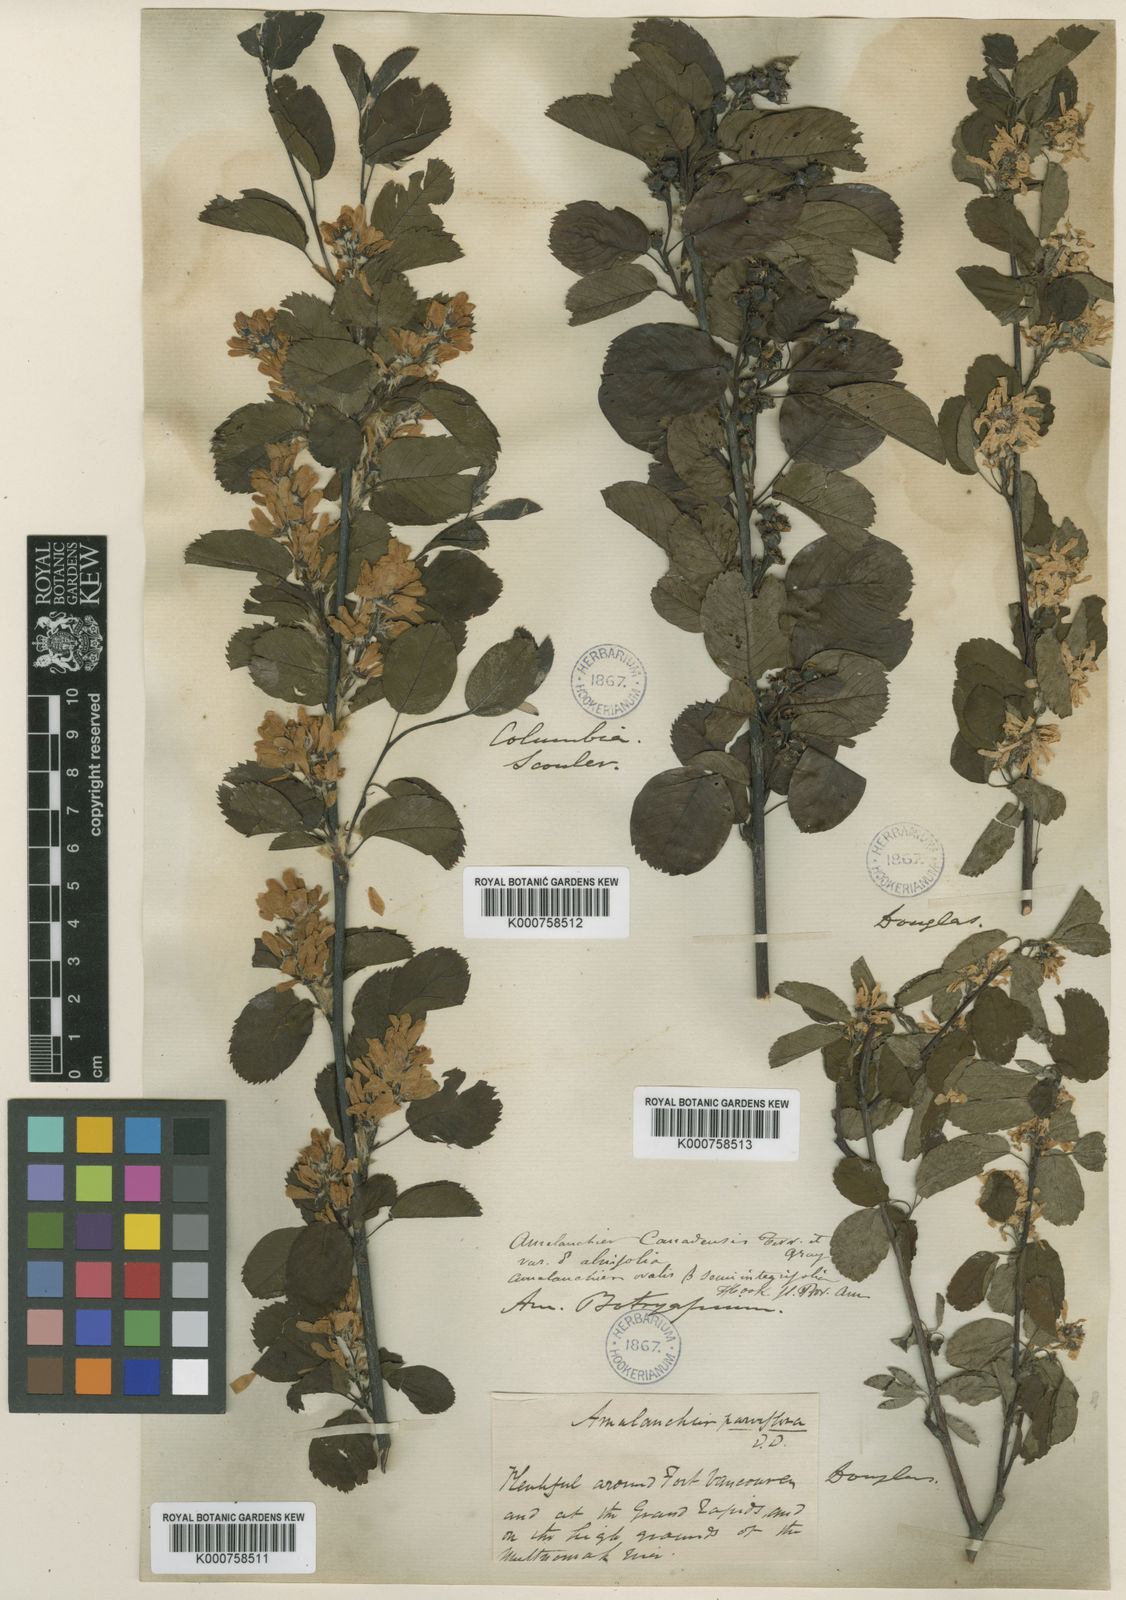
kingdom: Plantae
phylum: Tracheophyta
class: Magnoliopsida
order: Rosales
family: Rosaceae
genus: Amelanchier
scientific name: Amelanchier ovalis
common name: Serviceberry
